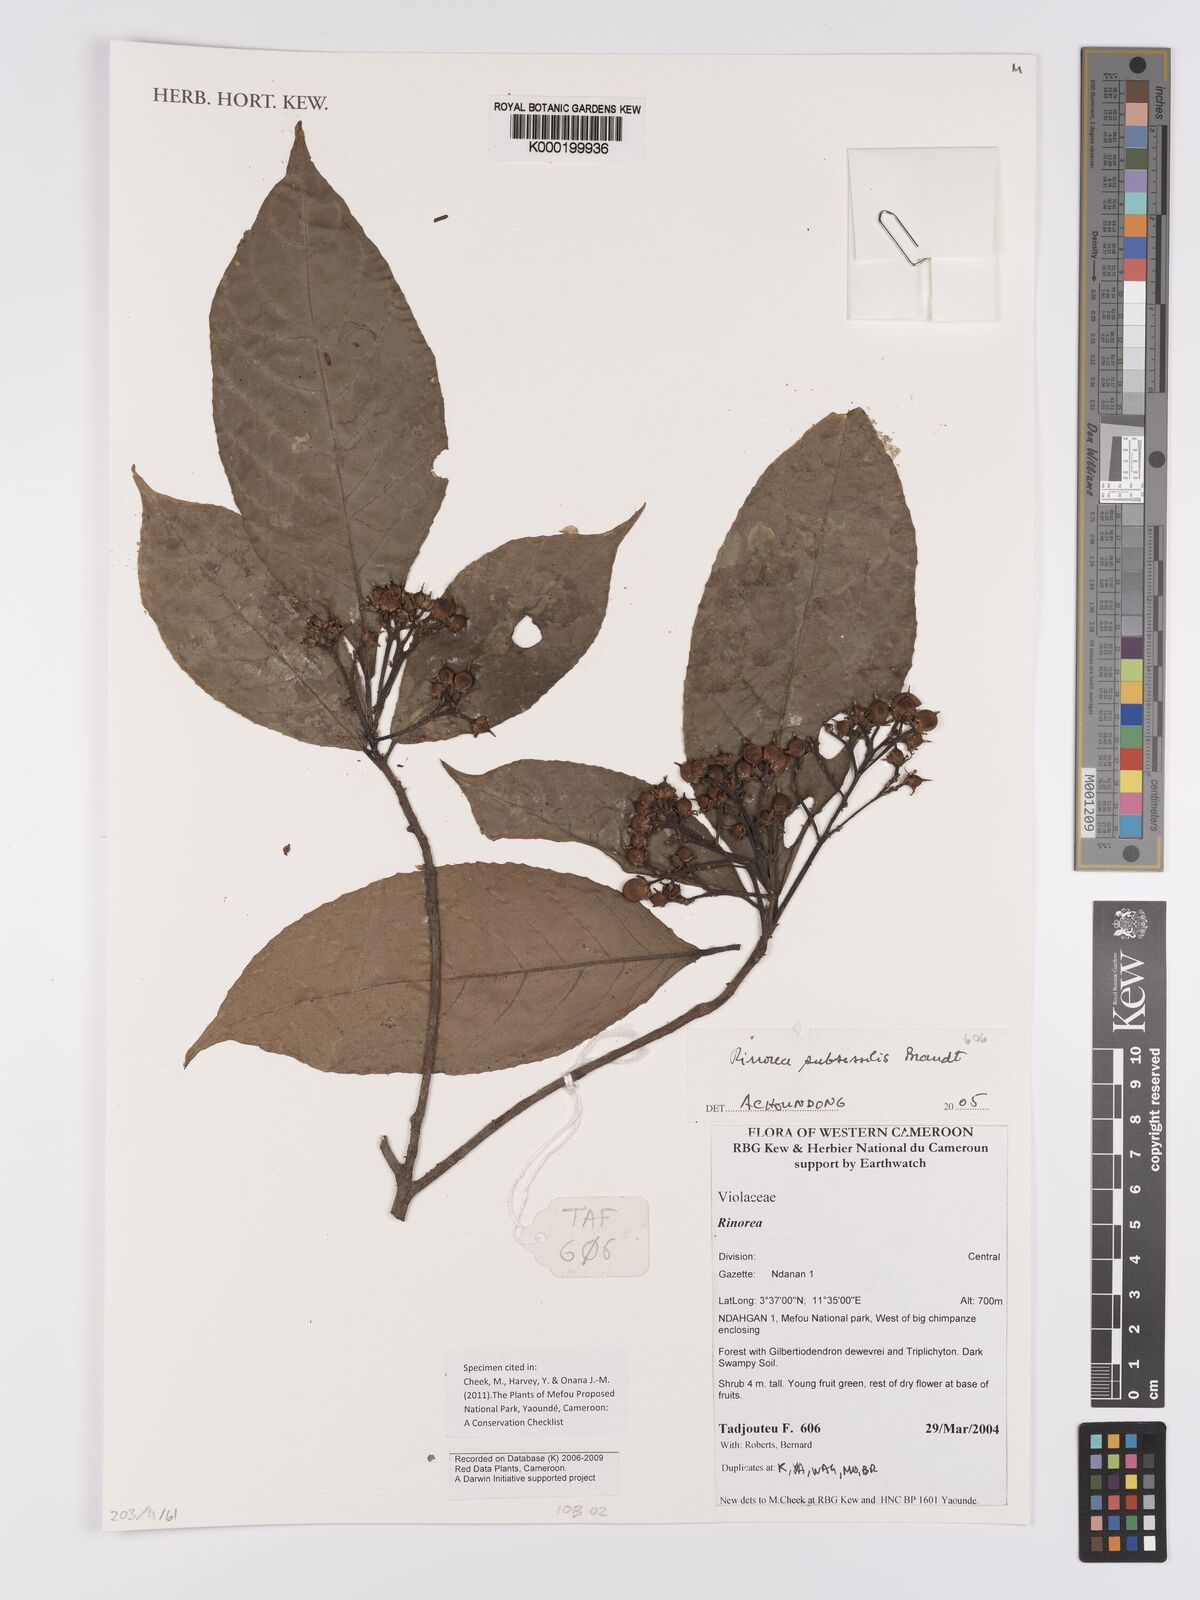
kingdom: Plantae
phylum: Tracheophyta
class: Magnoliopsida
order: Malpighiales
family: Violaceae
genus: Rinorea
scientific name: Rinorea subsessilis
